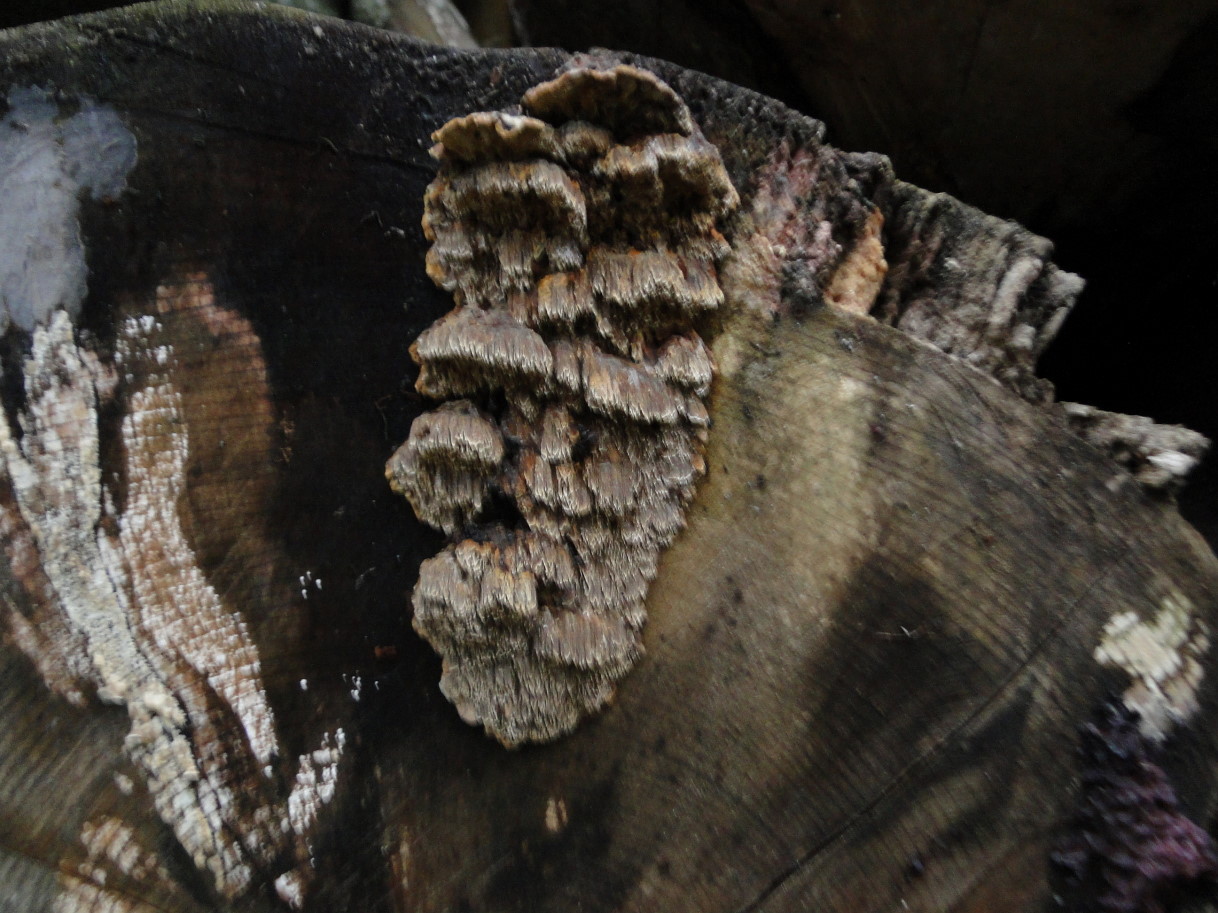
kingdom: Fungi
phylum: Basidiomycota
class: Agaricomycetes
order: Hymenochaetales
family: Hymenochaetaceae
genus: Mensularia
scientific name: Mensularia nodulosa
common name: bøge-spejlporesvamp
